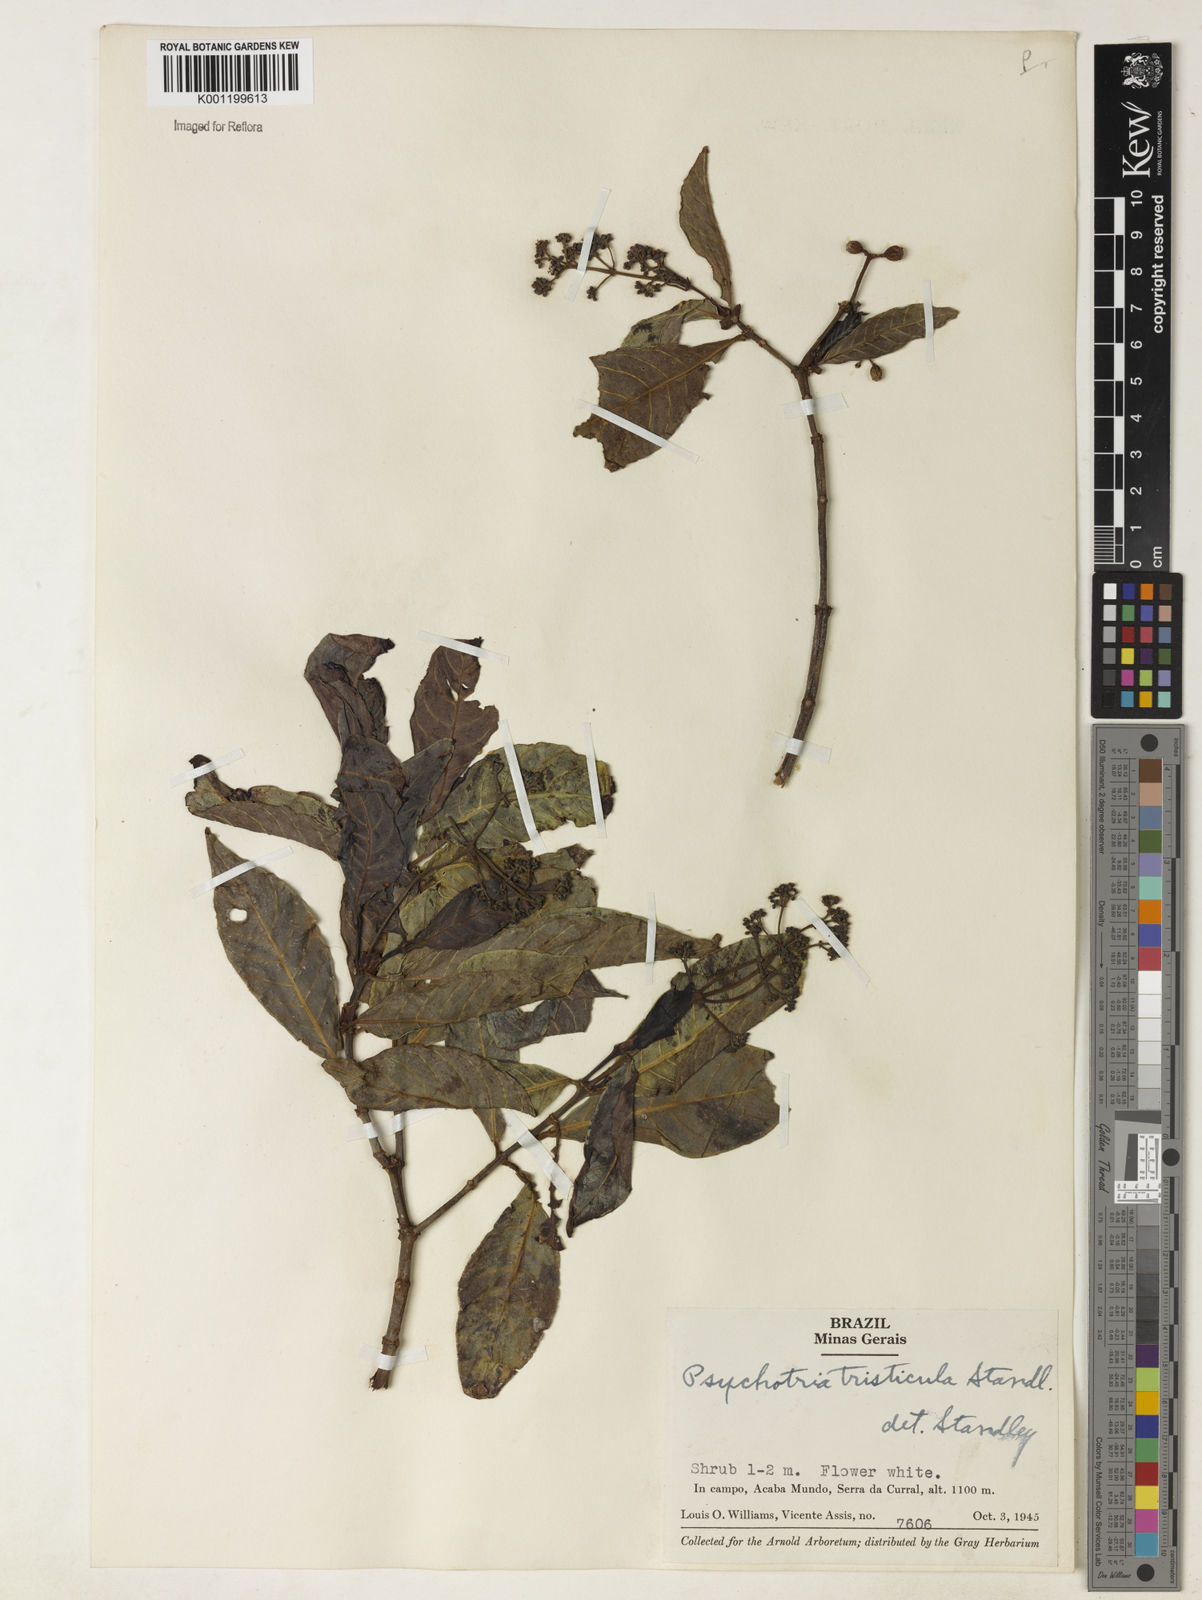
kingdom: Plantae
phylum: Tracheophyta
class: Magnoliopsida
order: Gentianales
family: Rubiaceae
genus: Psychotria
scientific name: Psychotria carthagenensis
